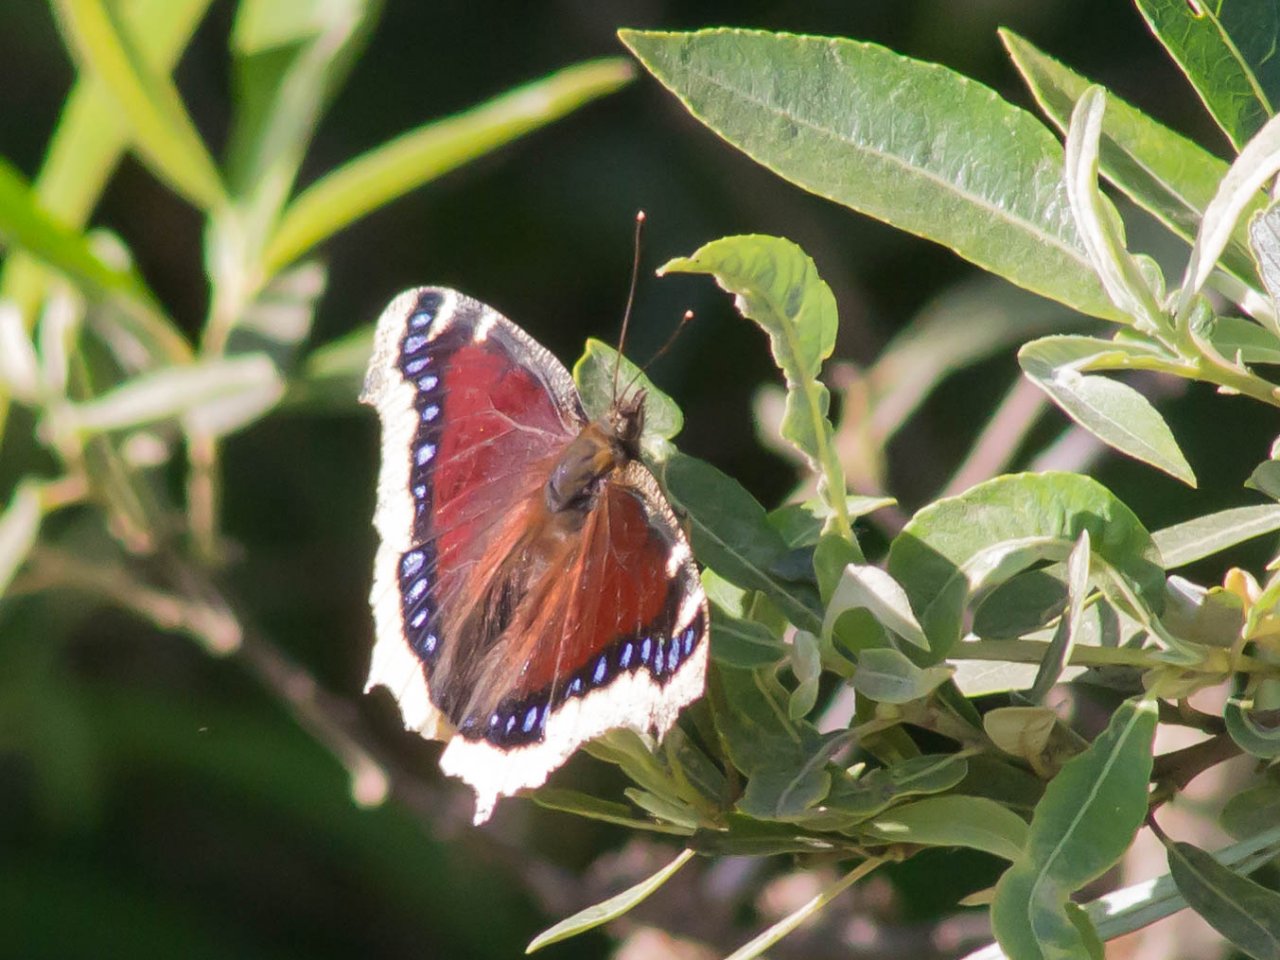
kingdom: Animalia
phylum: Arthropoda
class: Insecta
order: Lepidoptera
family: Nymphalidae
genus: Nymphalis
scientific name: Nymphalis antiopa
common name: Mourning Cloak
